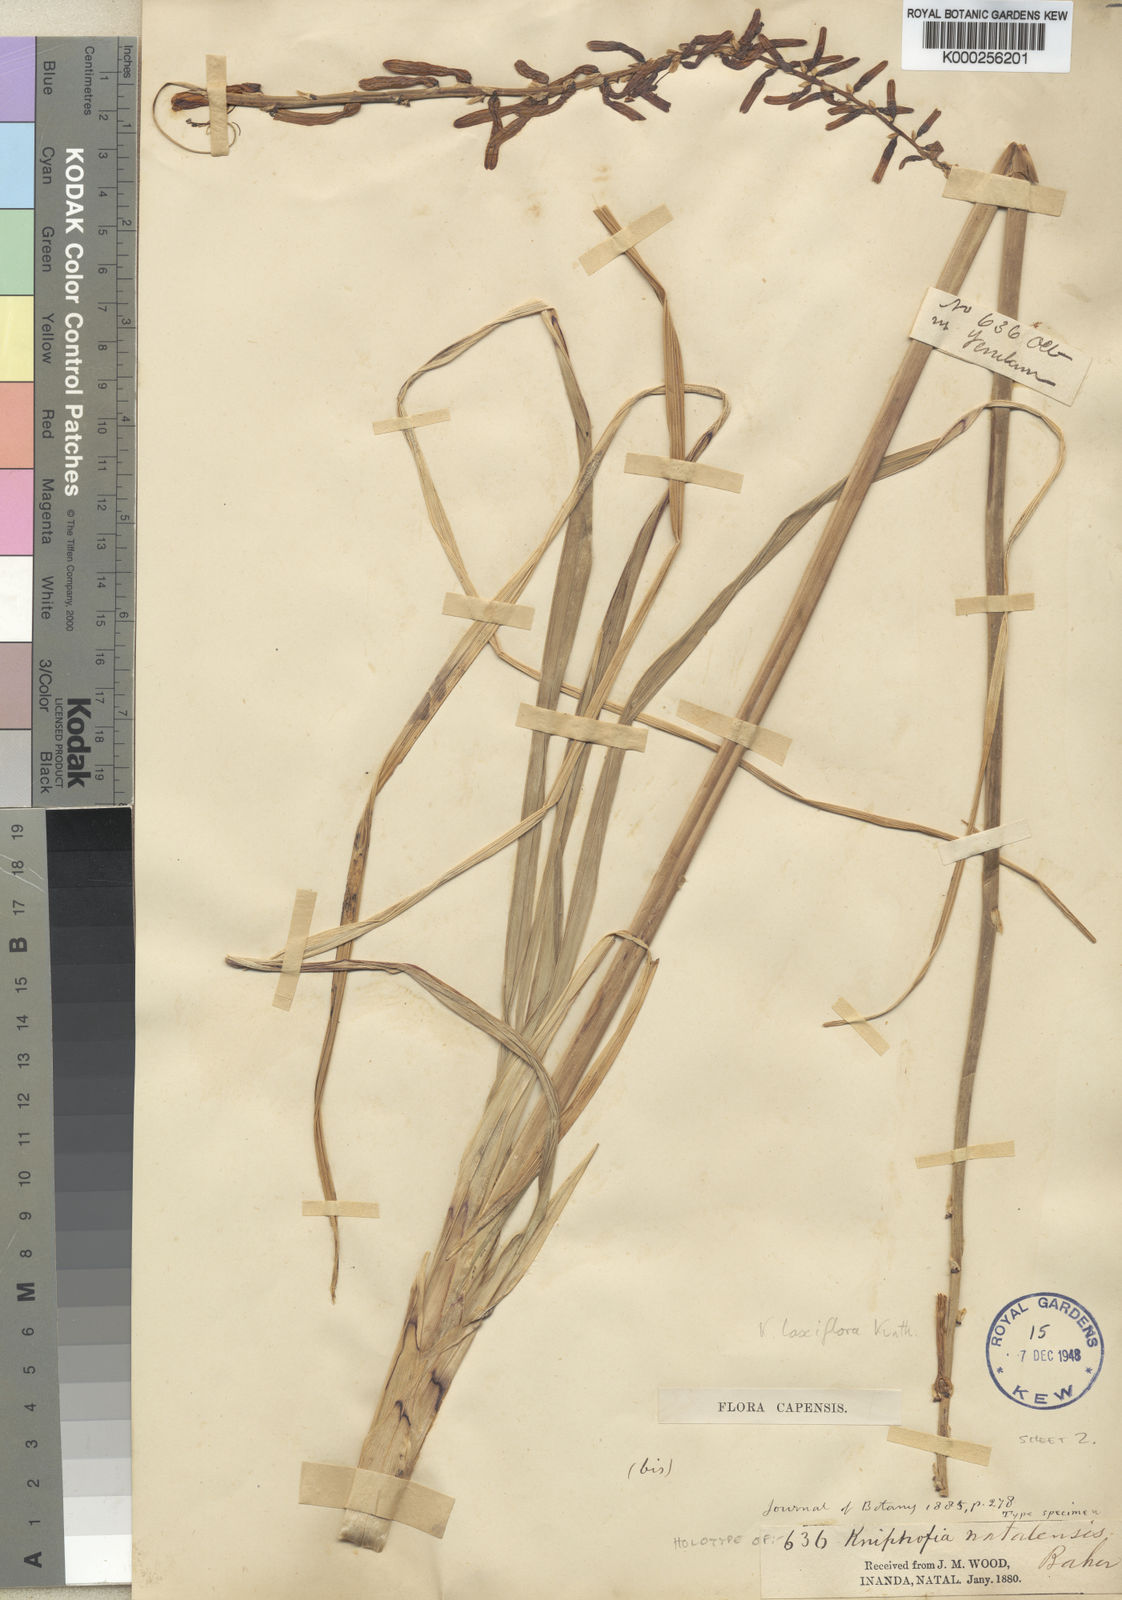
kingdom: Plantae
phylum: Tracheophyta
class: Liliopsida
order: Asparagales
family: Asphodelaceae
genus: Kniphofia
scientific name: Kniphofia laxiflora
